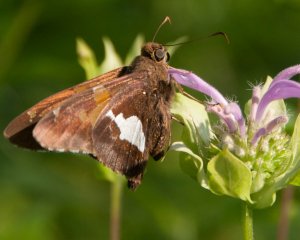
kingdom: Animalia
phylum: Arthropoda
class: Insecta
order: Lepidoptera
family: Hesperiidae
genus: Epargyreus
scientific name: Epargyreus clarus
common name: Silver-spotted Skipper
